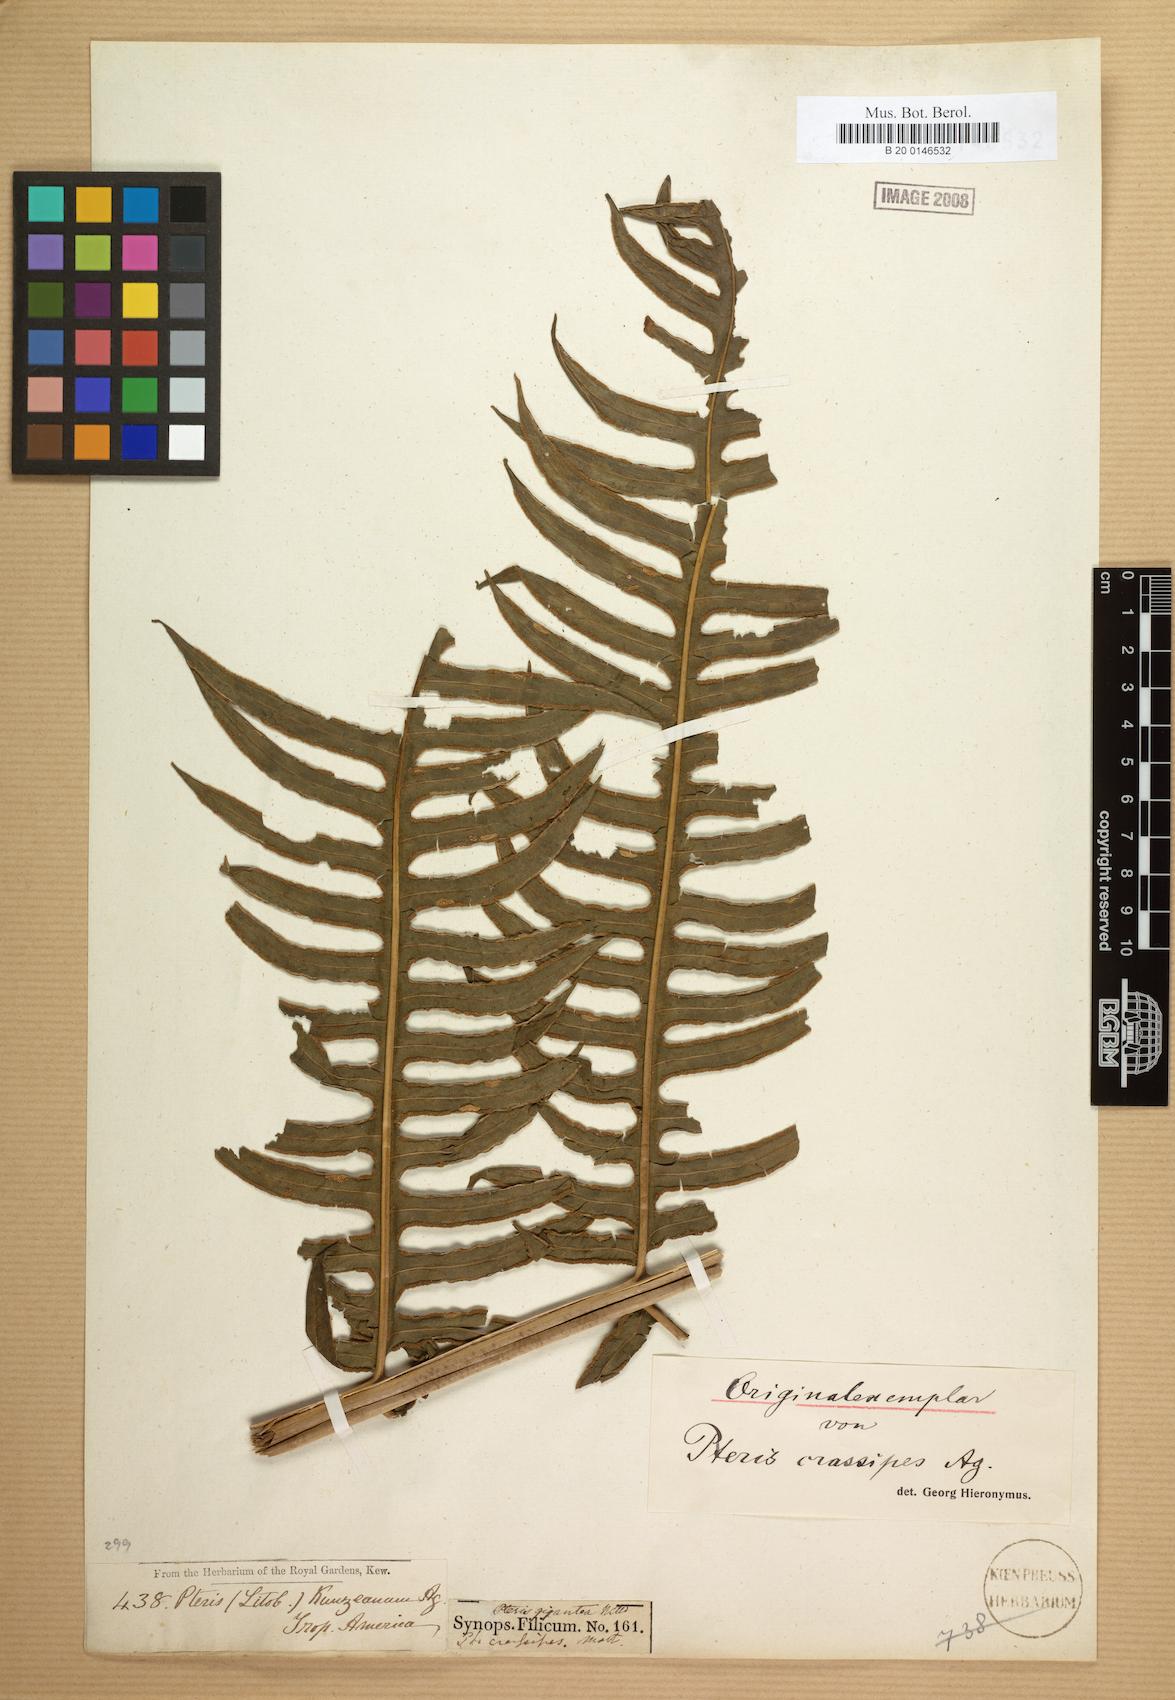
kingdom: Plantae
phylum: Tracheophyta
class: Polypodiopsida
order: Polypodiales
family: Pteridaceae
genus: Pteris
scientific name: Pteris gigantea
